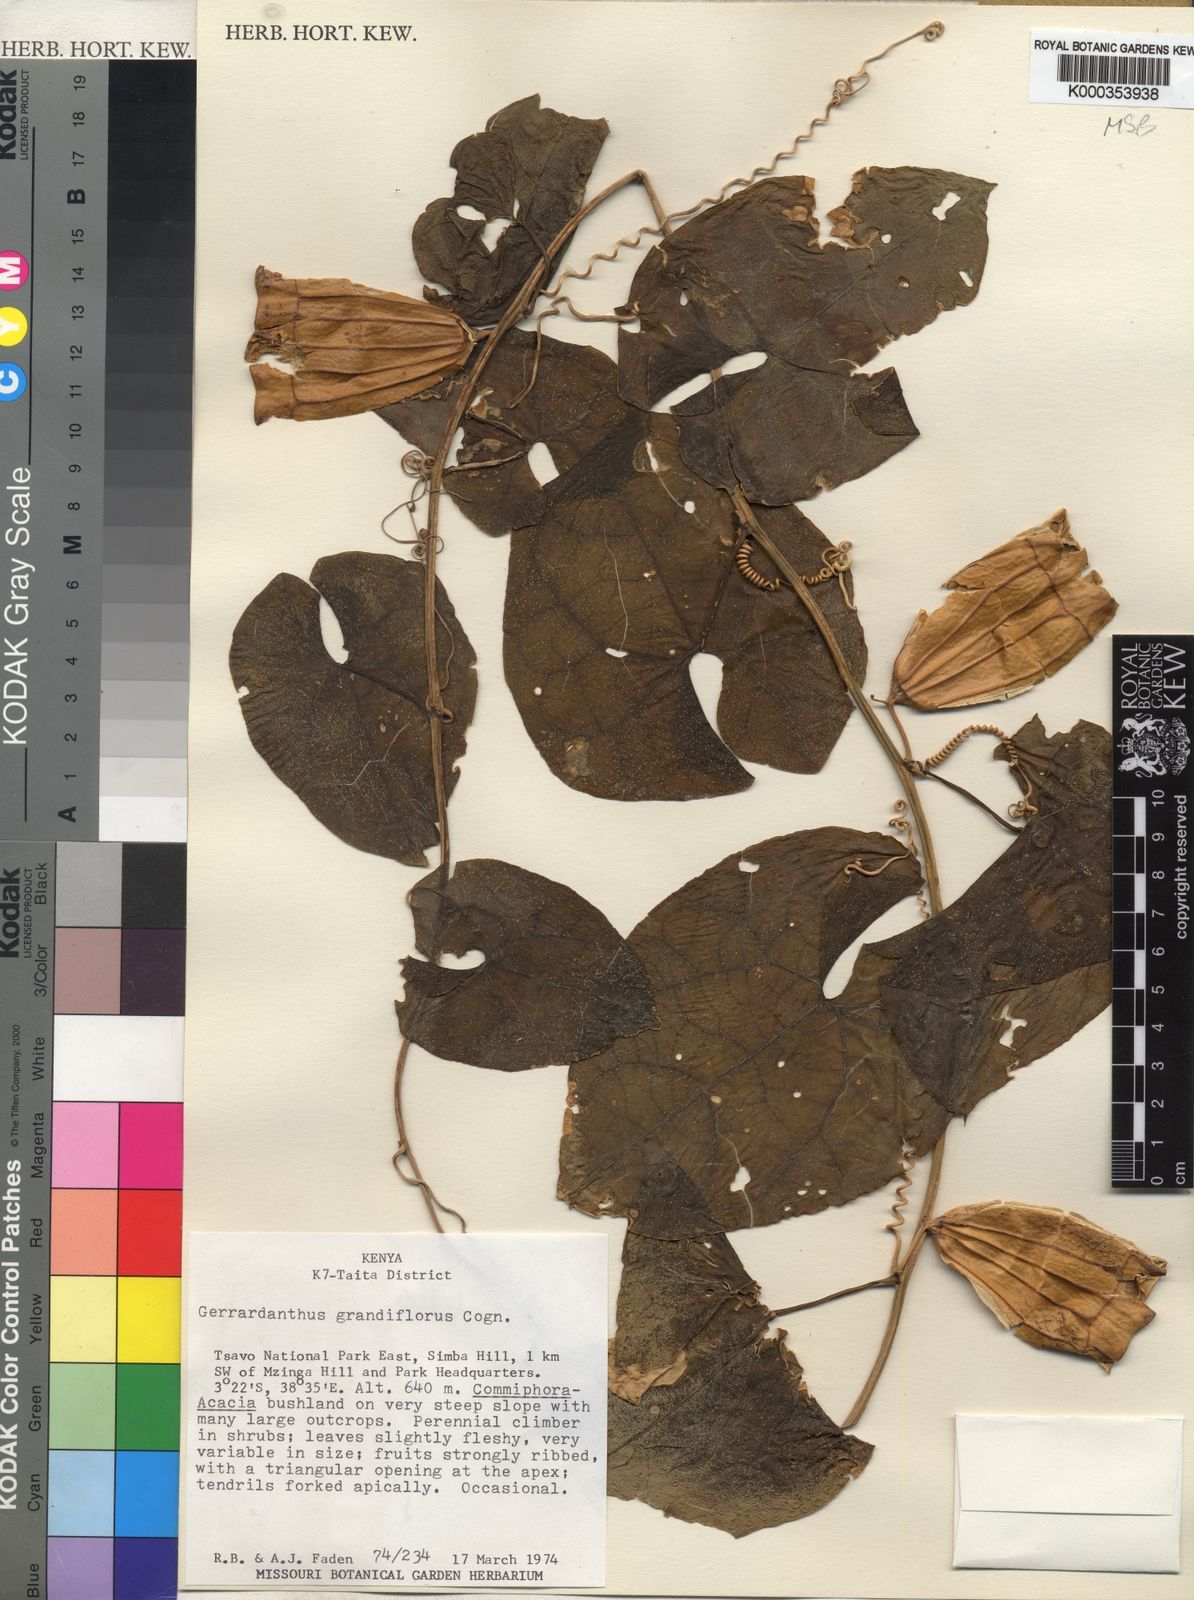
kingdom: Plantae
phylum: Tracheophyta
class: Magnoliopsida
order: Cucurbitales
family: Cucurbitaceae
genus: Gerrardanthus
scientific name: Gerrardanthus
